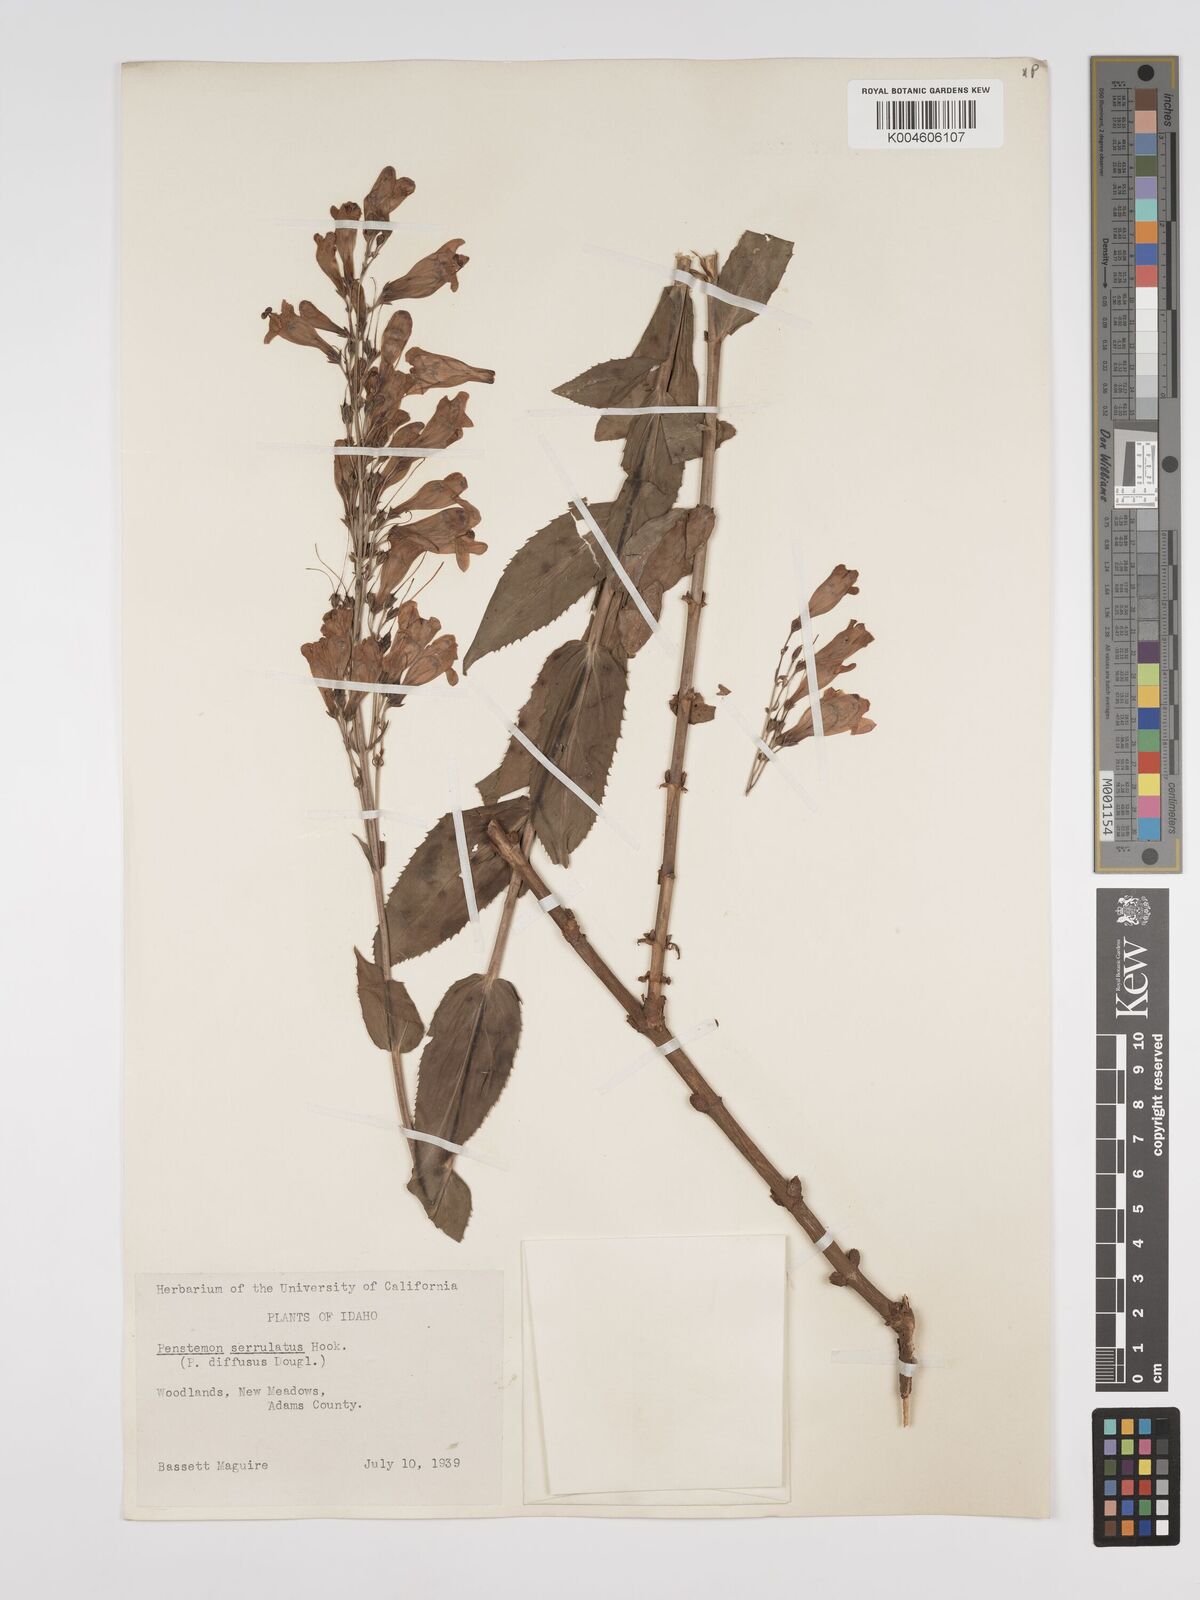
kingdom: Plantae
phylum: Tracheophyta
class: Magnoliopsida
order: Lamiales
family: Plantaginaceae
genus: Penstemon
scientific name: Penstemon
